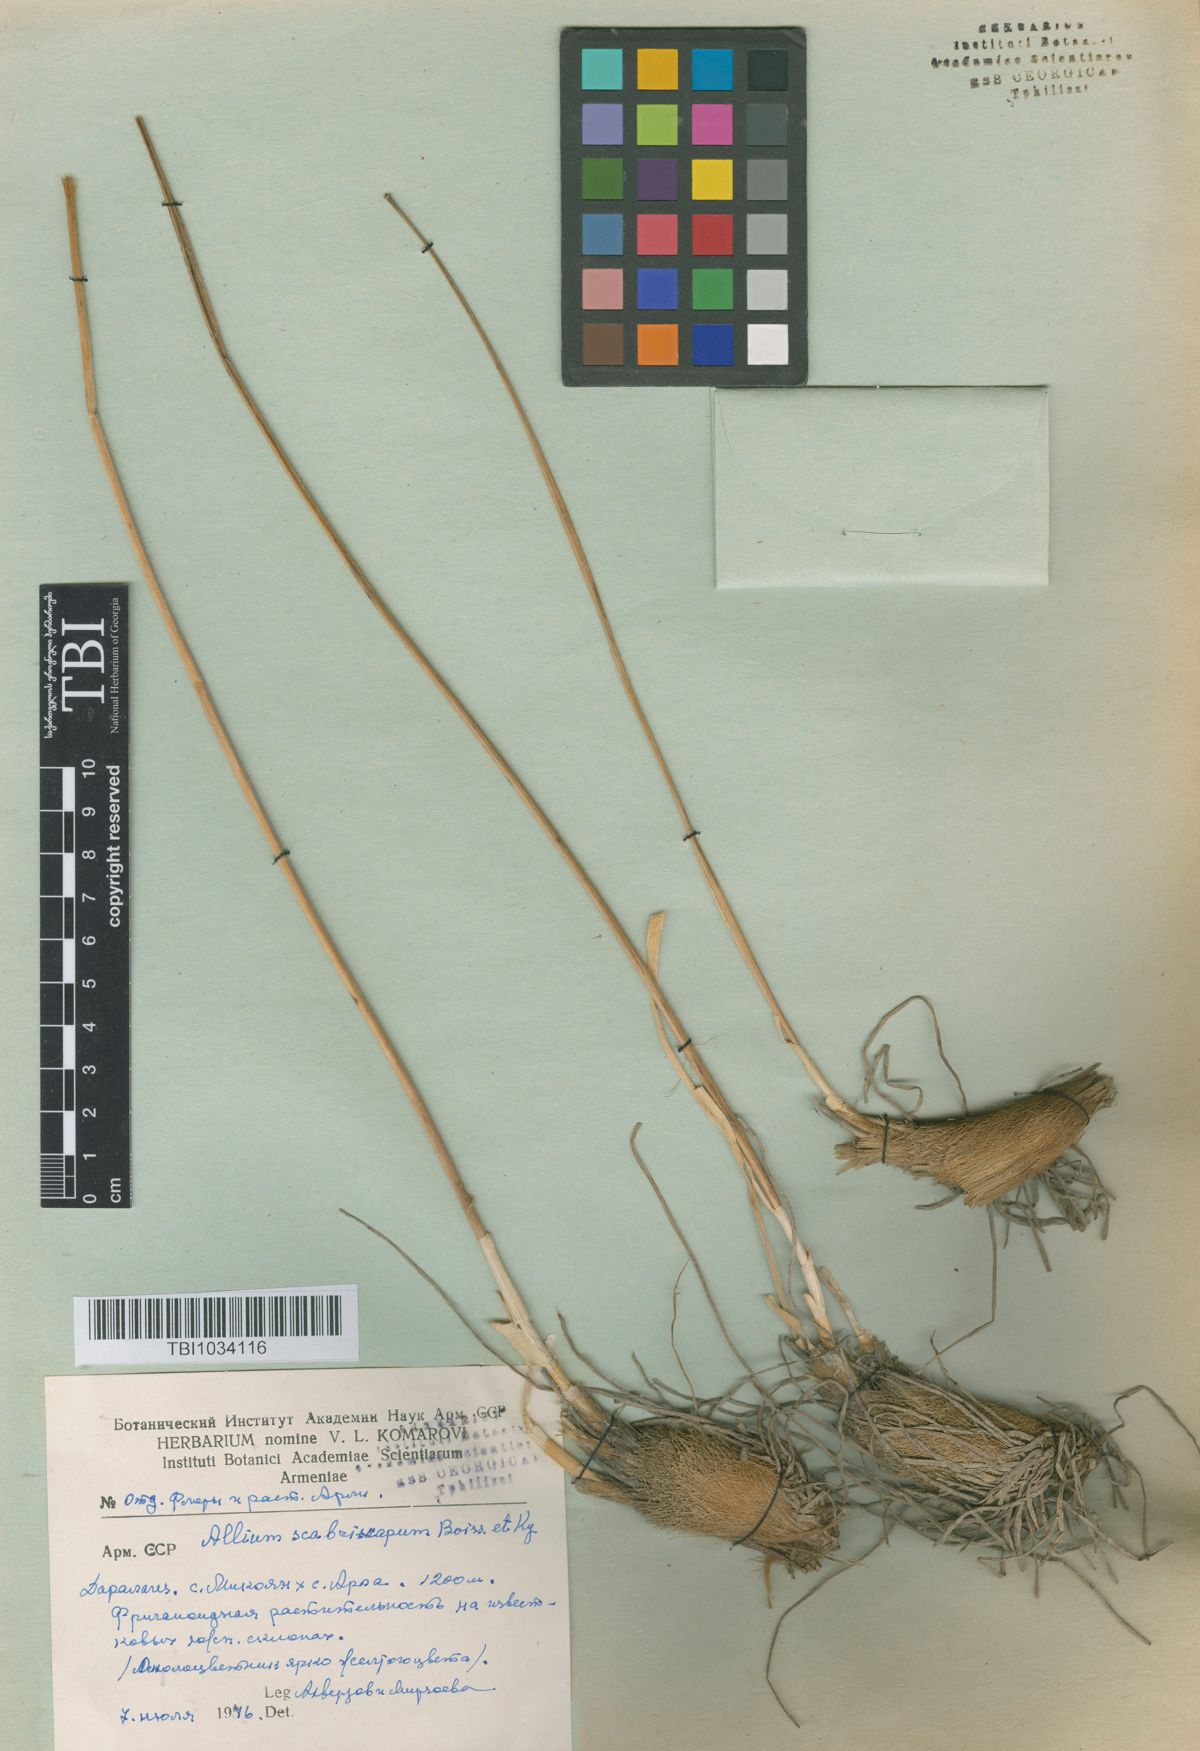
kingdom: Plantae
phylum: Tracheophyta
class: Liliopsida
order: Asparagales
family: Amaryllidaceae
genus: Allium
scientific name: Allium scabriscapum
